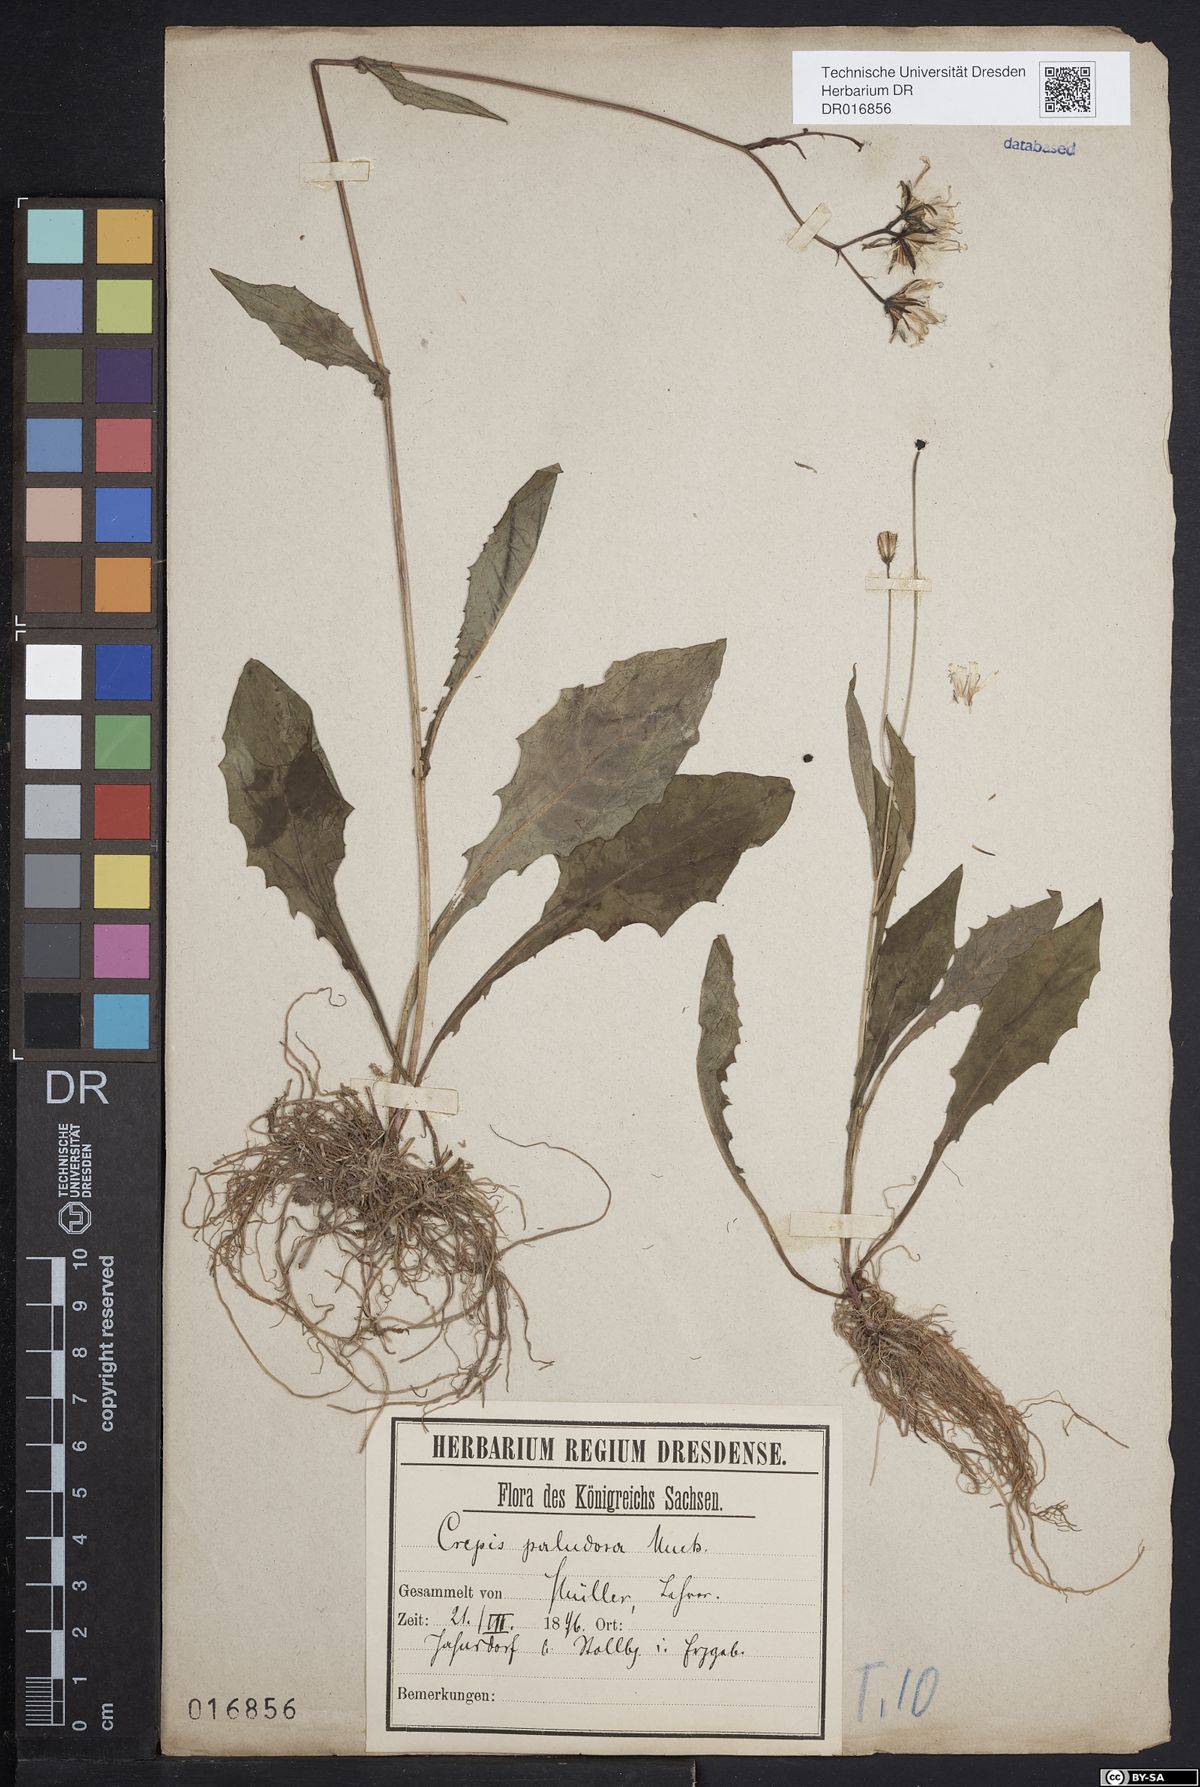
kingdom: Plantae
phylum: Tracheophyta
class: Magnoliopsida
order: Asterales
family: Asteraceae
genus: Crepis
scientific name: Crepis paludosa
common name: Marsh hawk's-beard
